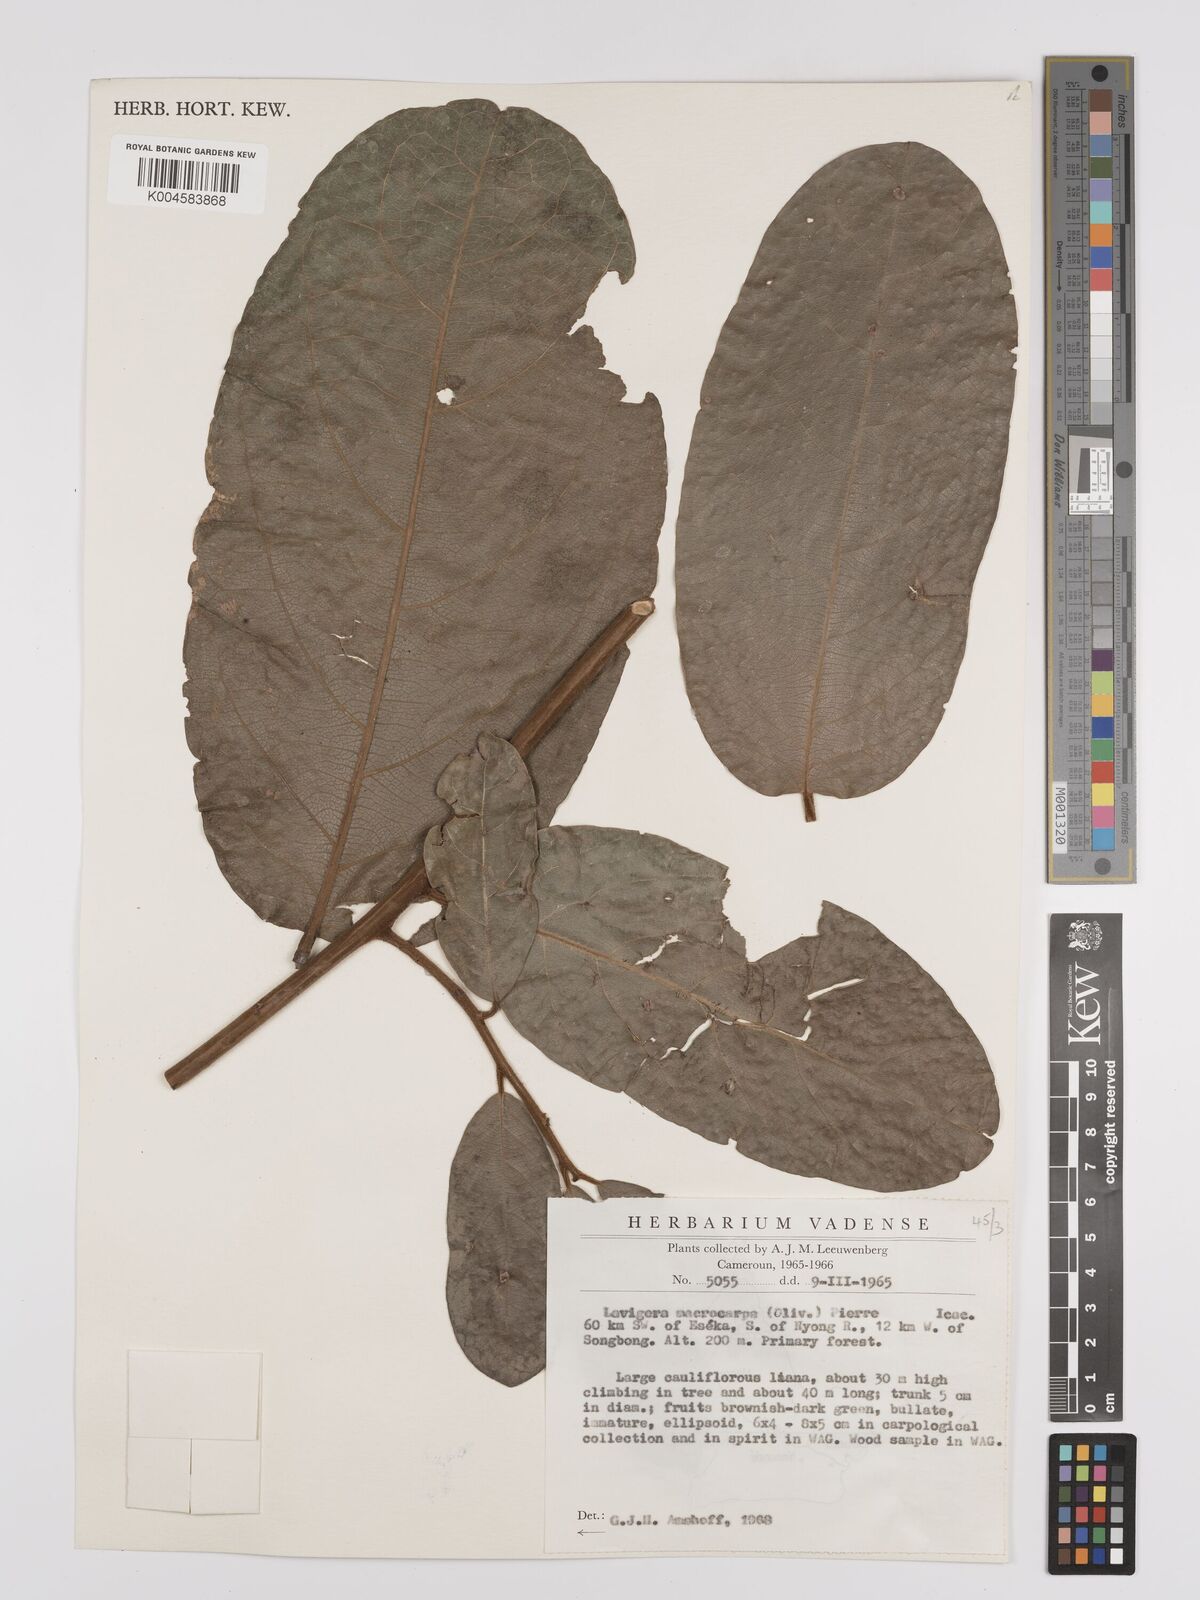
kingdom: Plantae
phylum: Tracheophyta
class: Magnoliopsida
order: Icacinales
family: Icacinaceae
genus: Lavigeria
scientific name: Lavigeria macrocarpa
